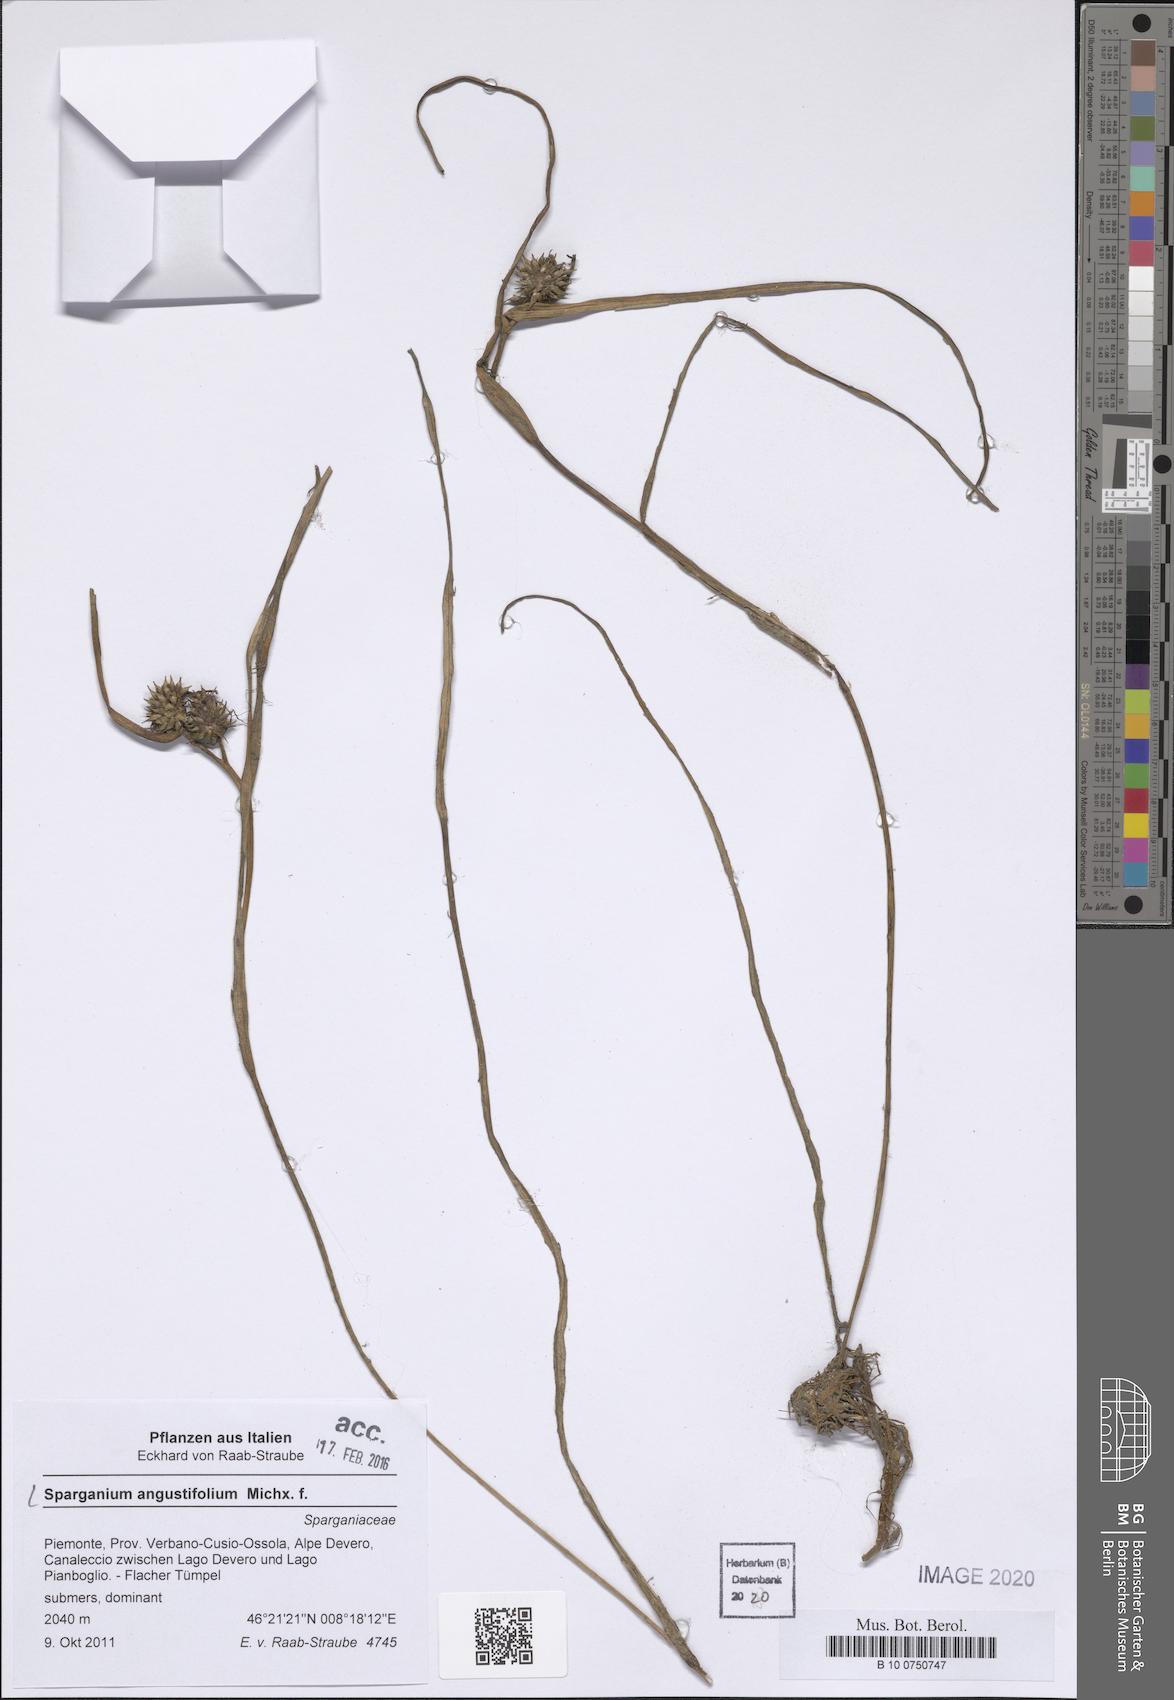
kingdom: Plantae
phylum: Tracheophyta
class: Liliopsida
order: Poales
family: Typhaceae
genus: Sparganium
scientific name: Sparganium angustifolium
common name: Floating bur-reed
